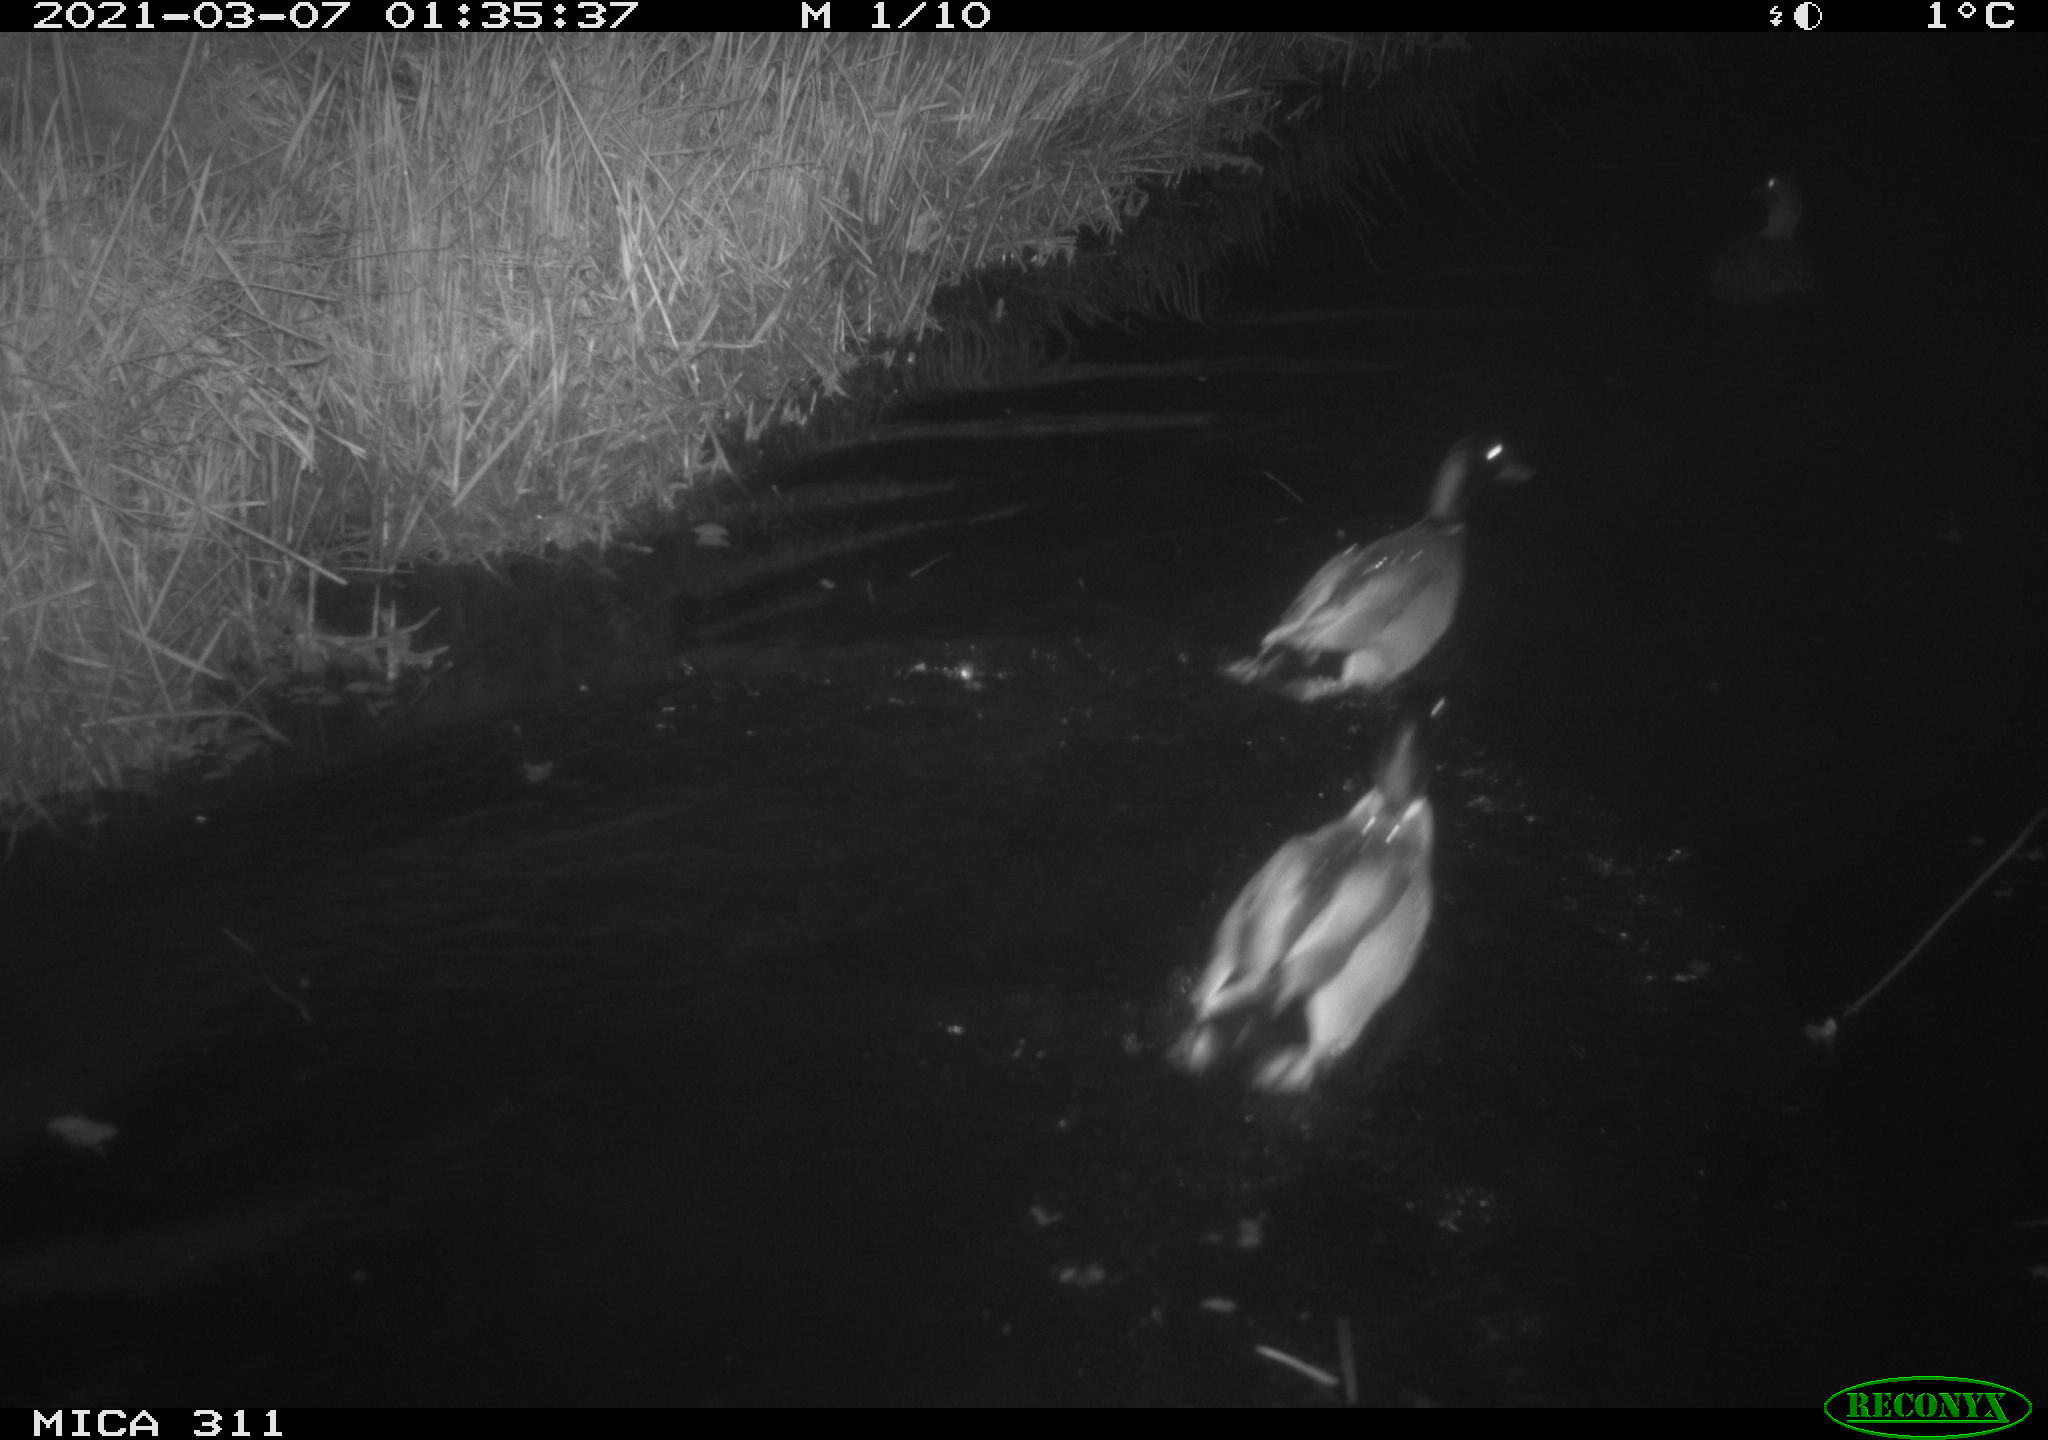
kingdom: Animalia
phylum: Chordata
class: Aves
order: Anseriformes
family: Anatidae
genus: Anas
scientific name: Anas platyrhynchos
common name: Mallard
